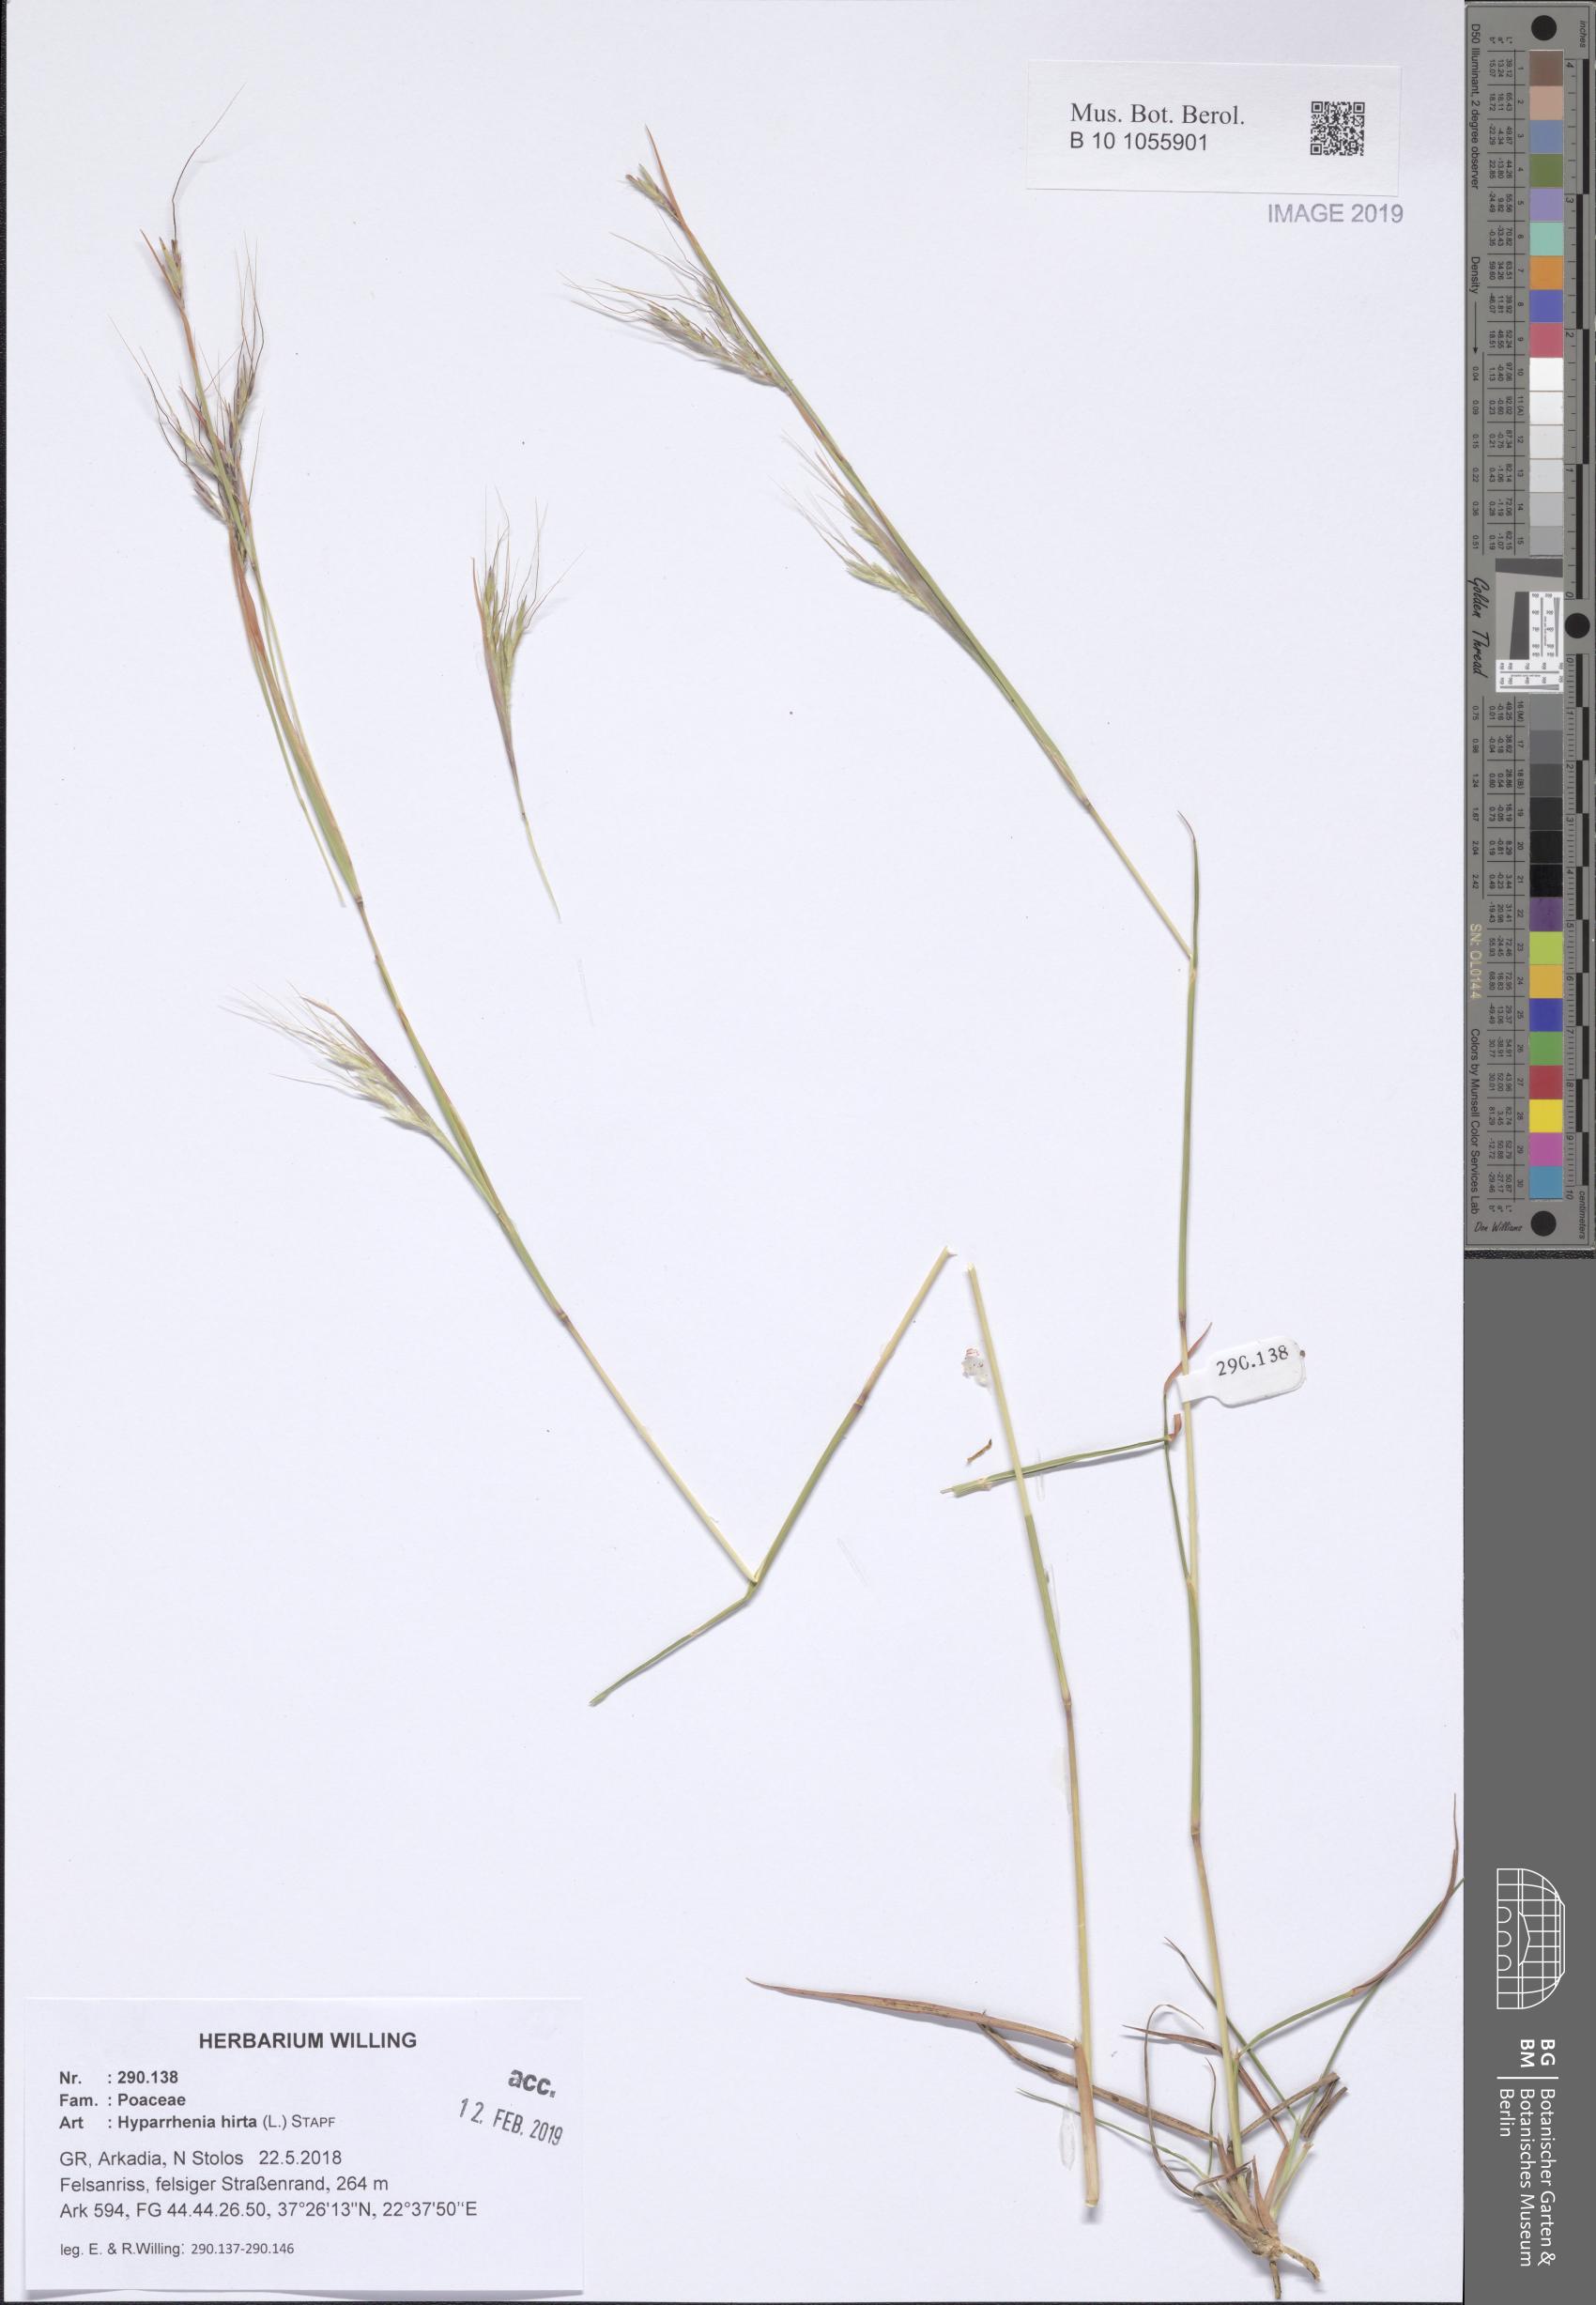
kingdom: Plantae
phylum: Tracheophyta
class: Liliopsida
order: Poales
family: Poaceae
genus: Hyparrhenia
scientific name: Hyparrhenia hirta
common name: Thatching grass
